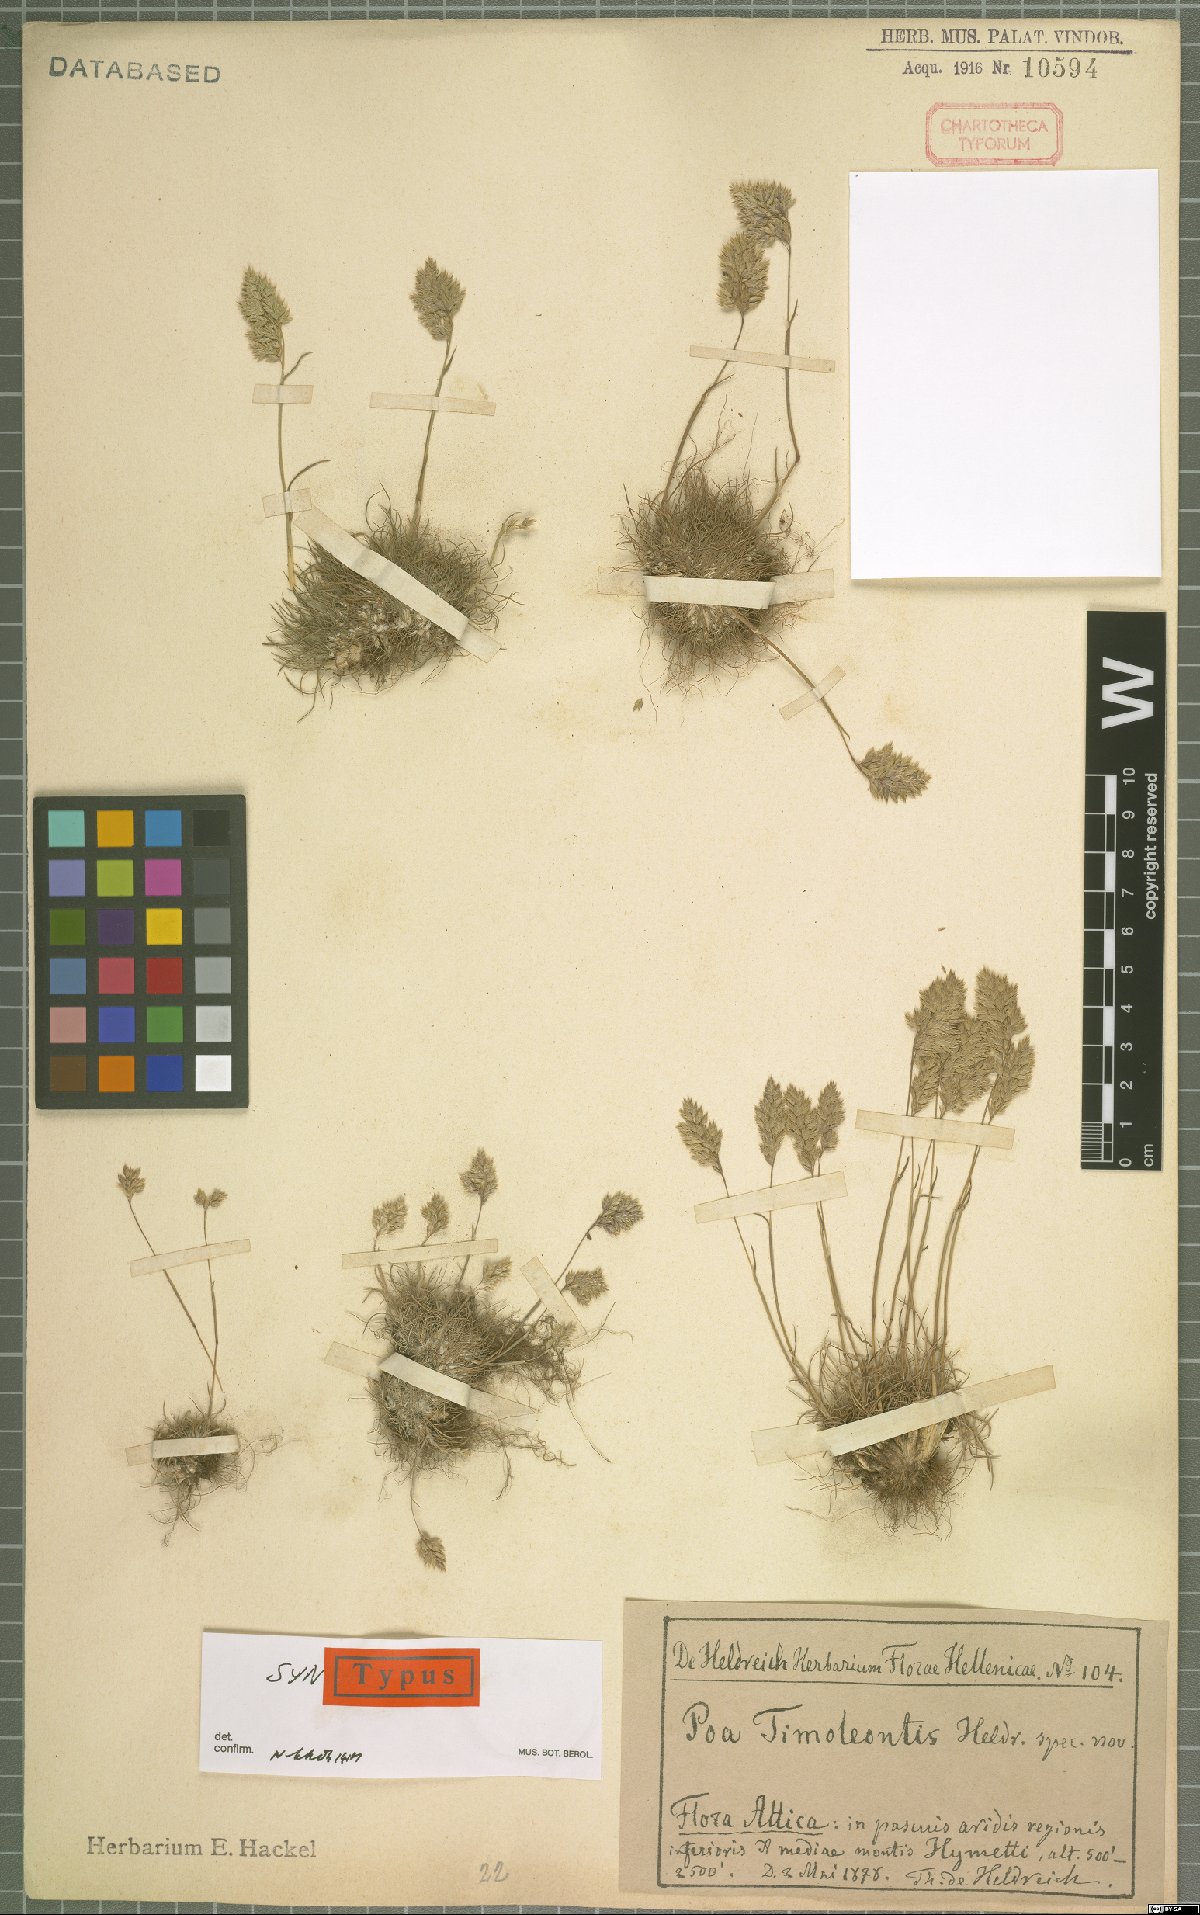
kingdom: Plantae
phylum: Tracheophyta
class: Liliopsida
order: Poales
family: Poaceae
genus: Poa
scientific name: Poa timoleontis
